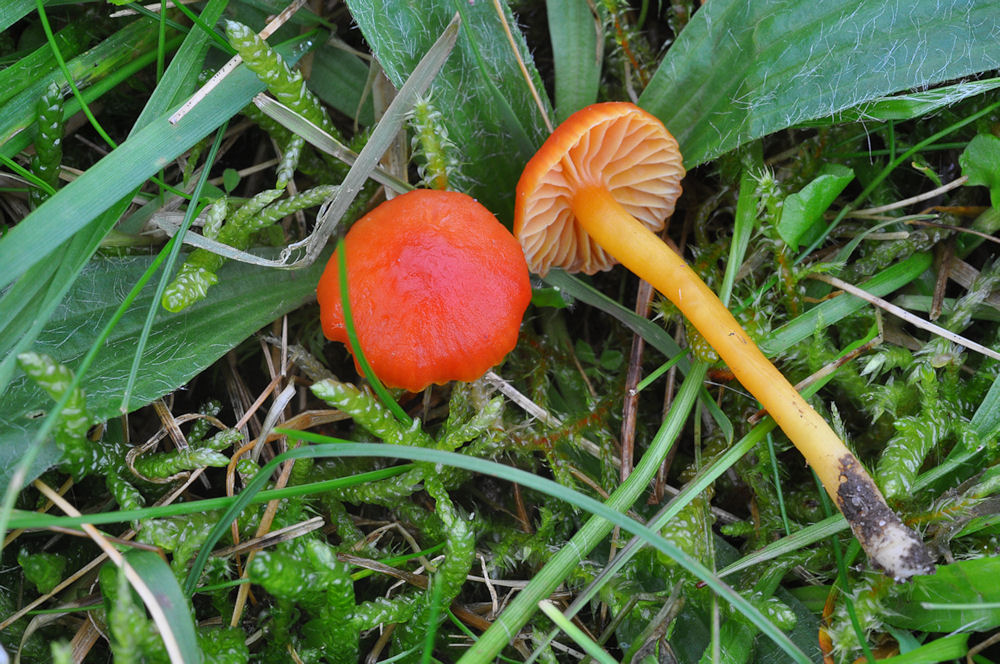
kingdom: Fungi
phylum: Basidiomycota
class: Agaricomycetes
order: Agaricales
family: Hygrophoraceae
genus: Hygrocybe
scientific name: Hygrocybe mucronella
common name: bitter vokshat
